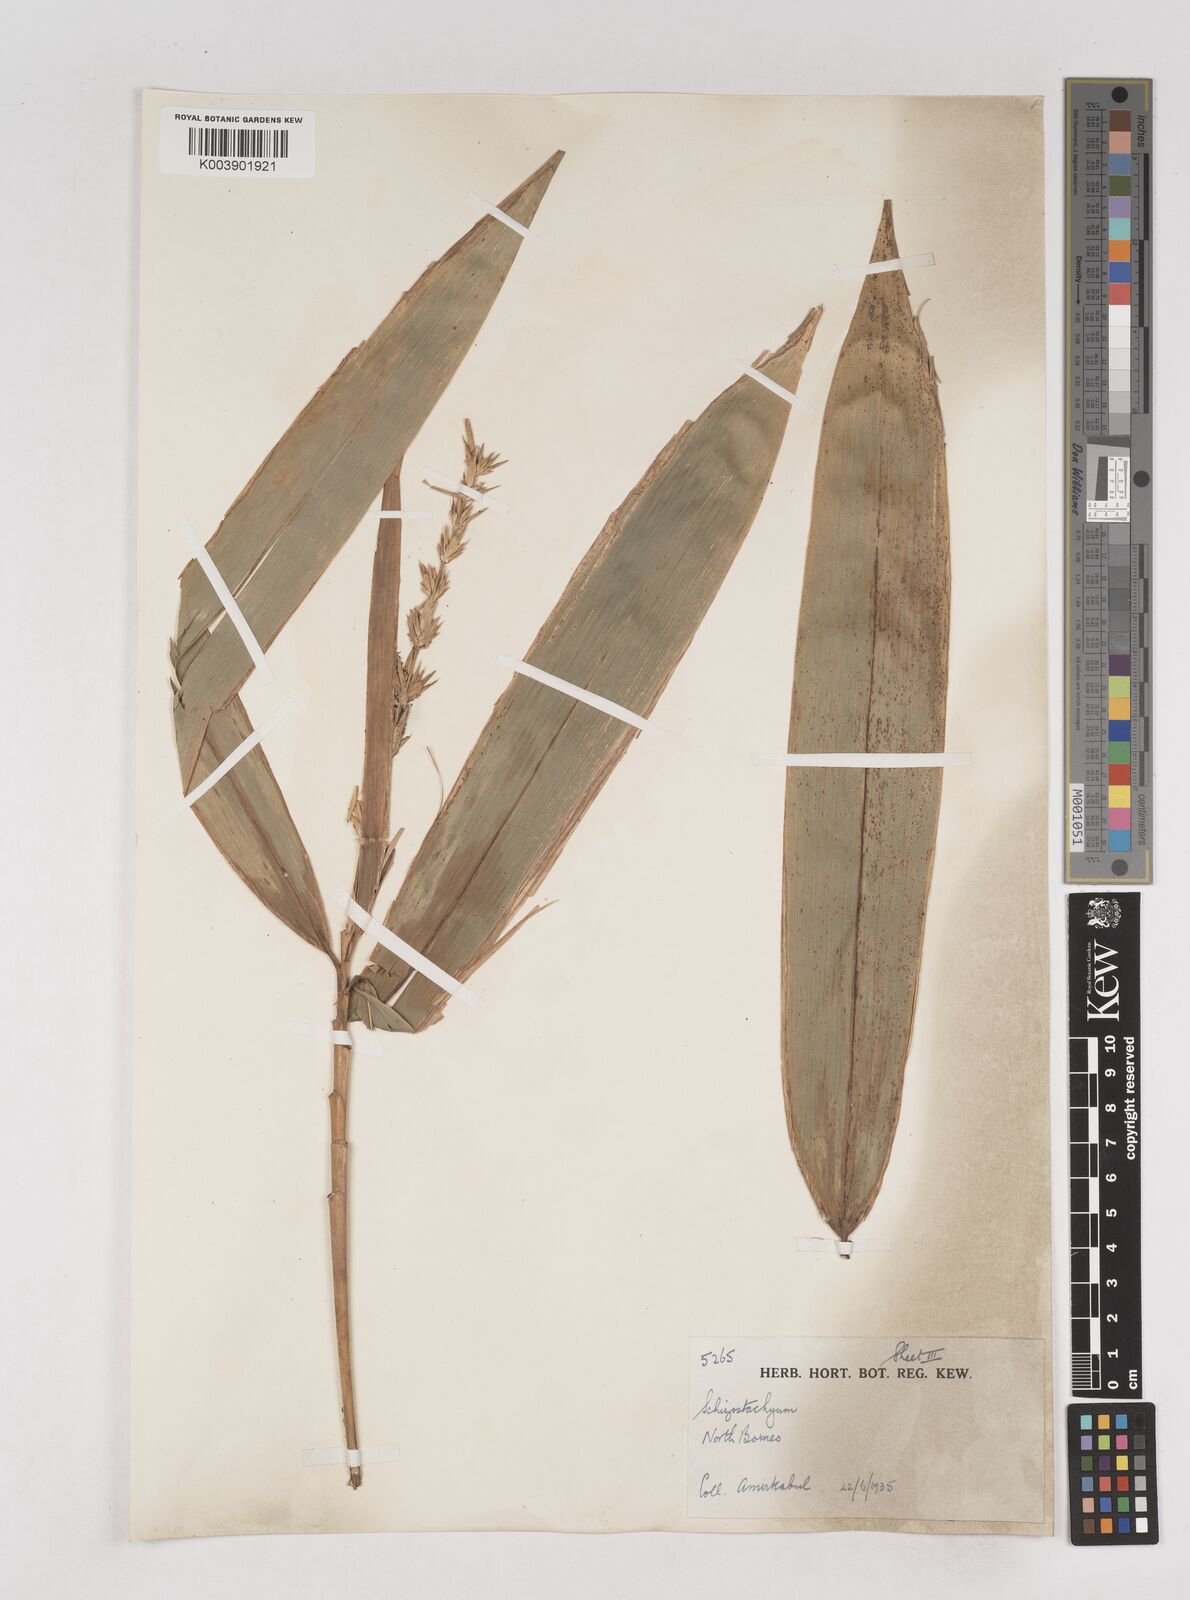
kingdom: Plantae
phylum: Tracheophyta
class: Liliopsida
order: Poales
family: Poaceae
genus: Schizostachyum
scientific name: Schizostachyum brachycladum
